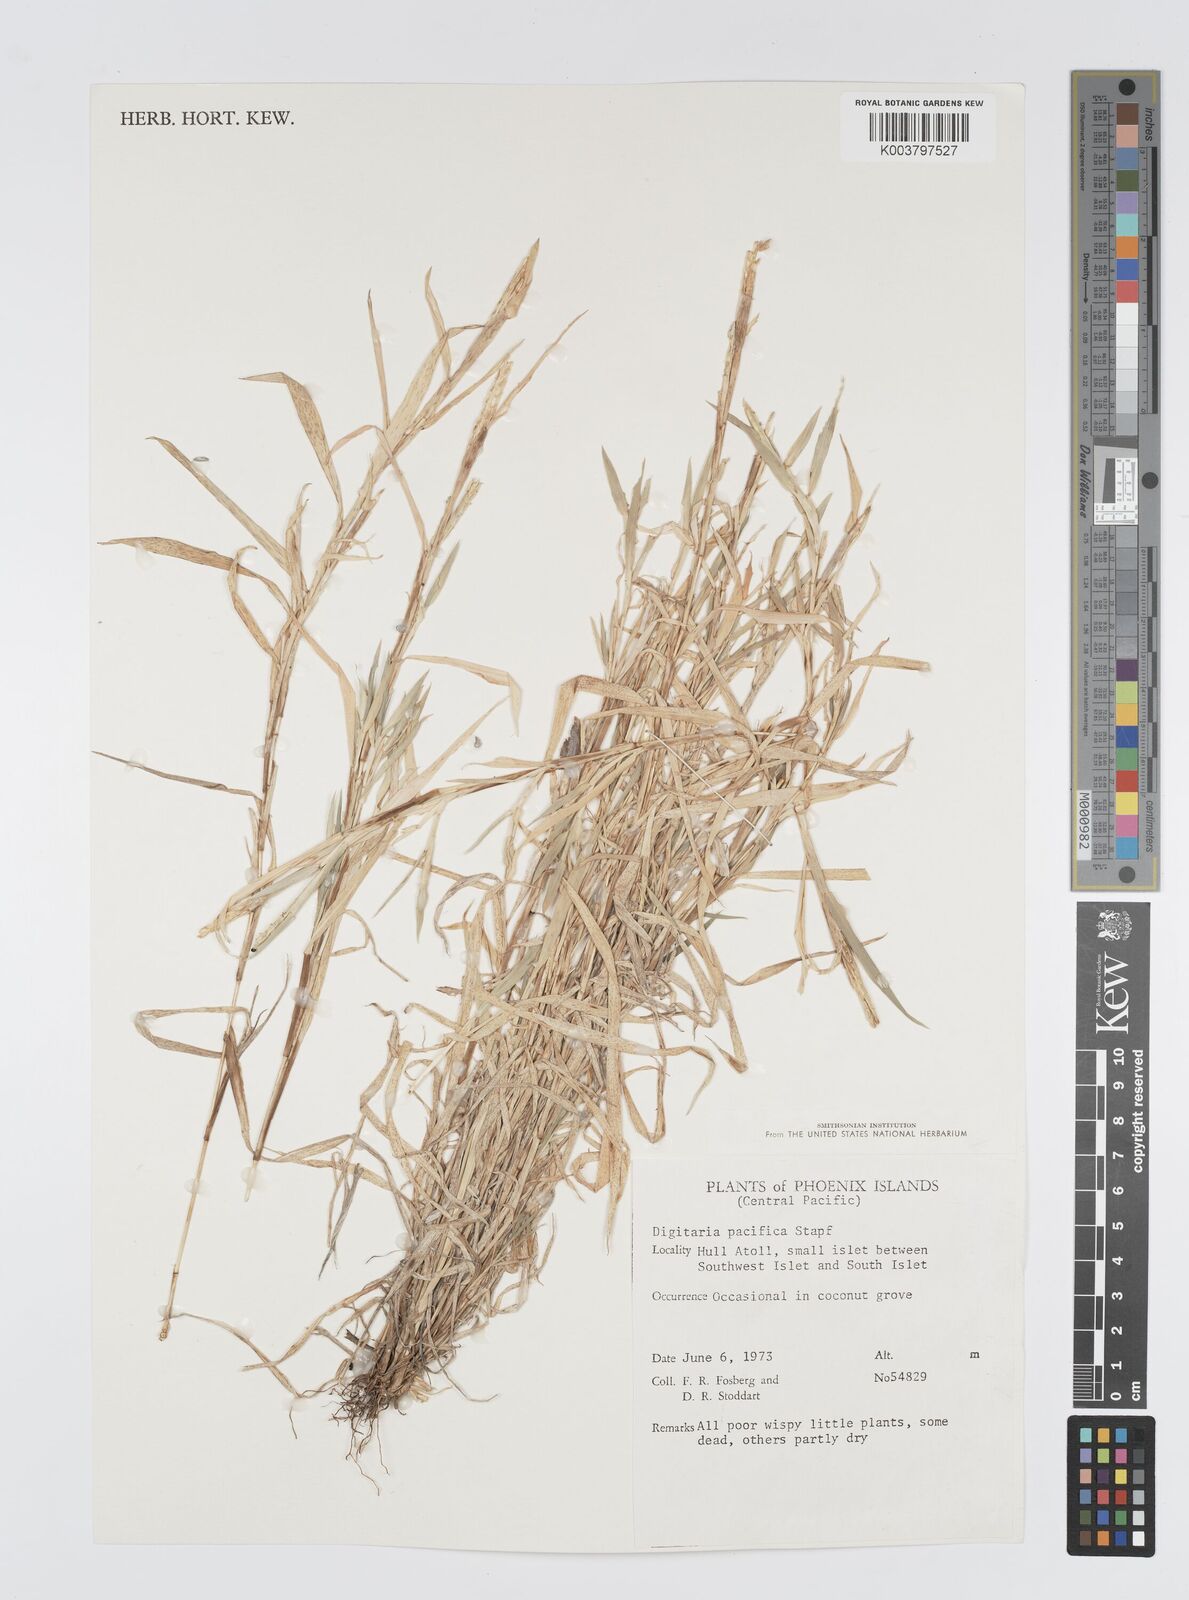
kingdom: Plantae
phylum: Tracheophyta
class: Liliopsida
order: Poales
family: Poaceae
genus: Digitaria
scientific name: Digitaria stenotaphrodes
